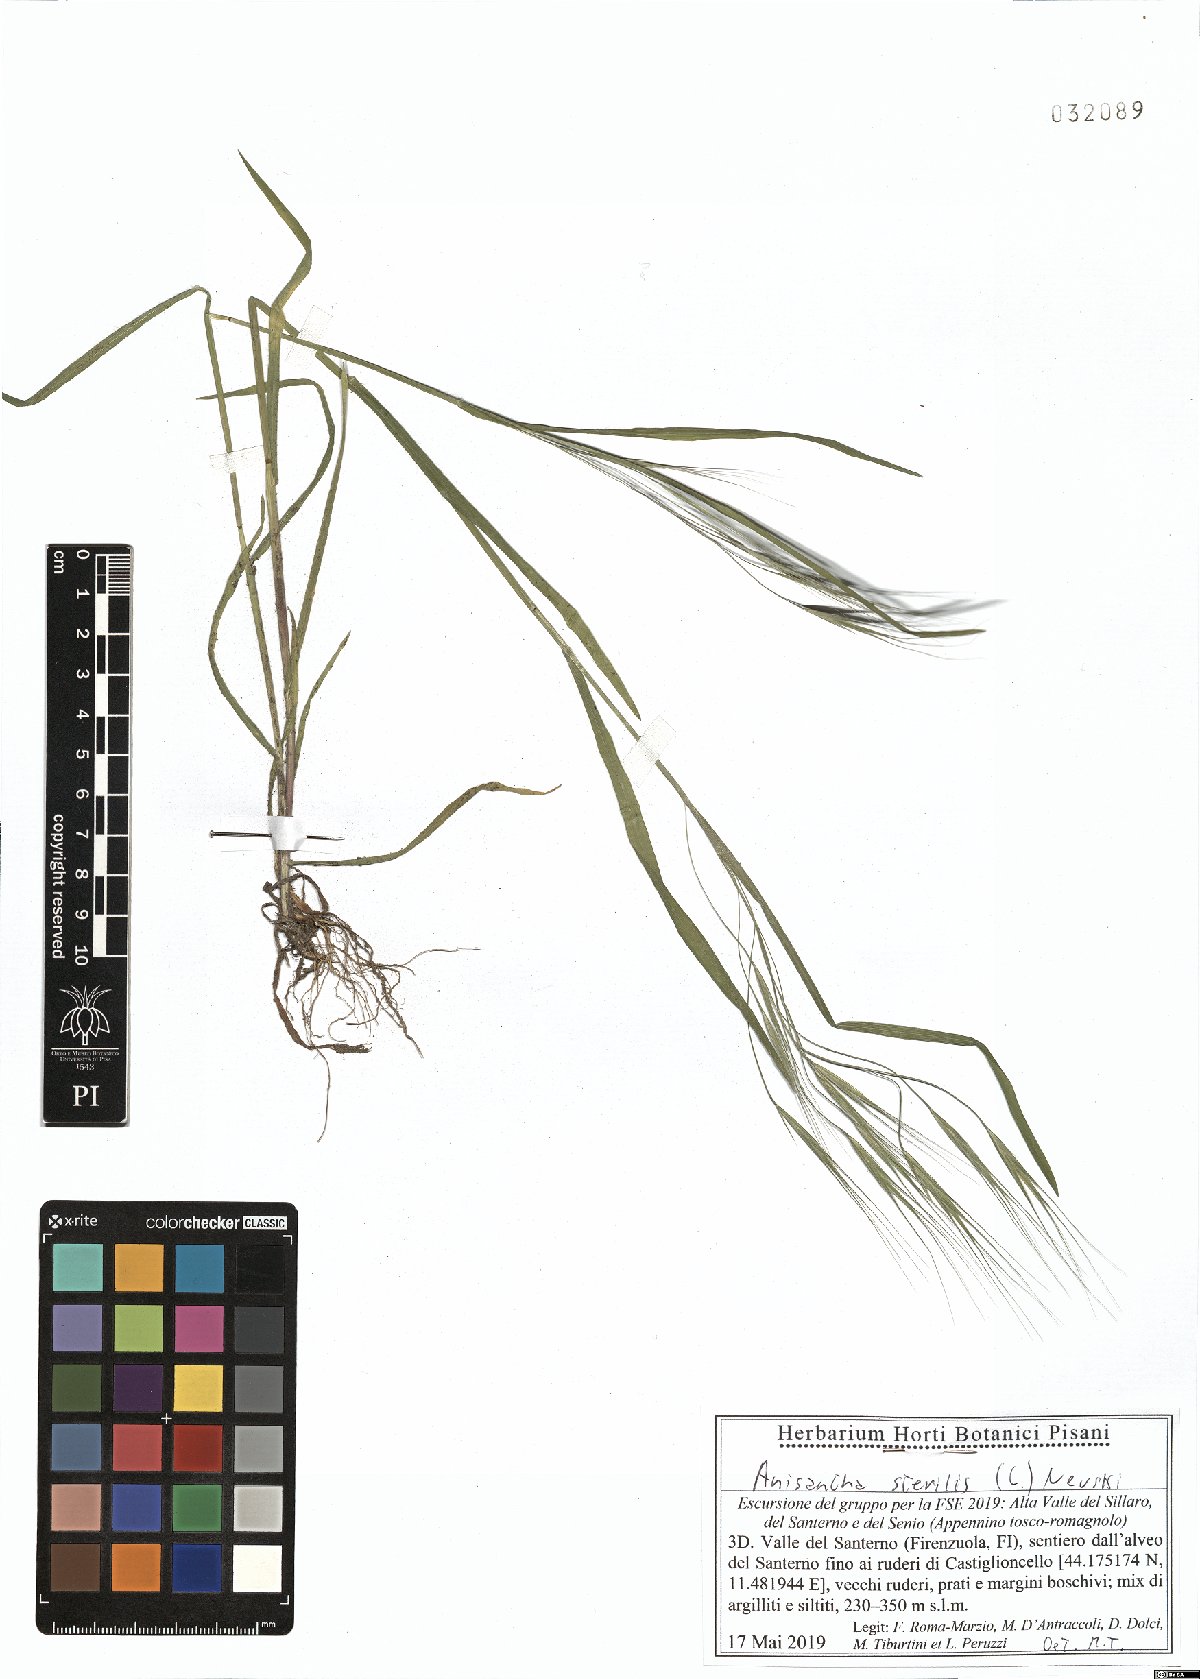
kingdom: Plantae
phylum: Tracheophyta
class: Liliopsida
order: Poales
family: Poaceae
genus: Bromus
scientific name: Bromus sterilis
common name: Poverty brome
